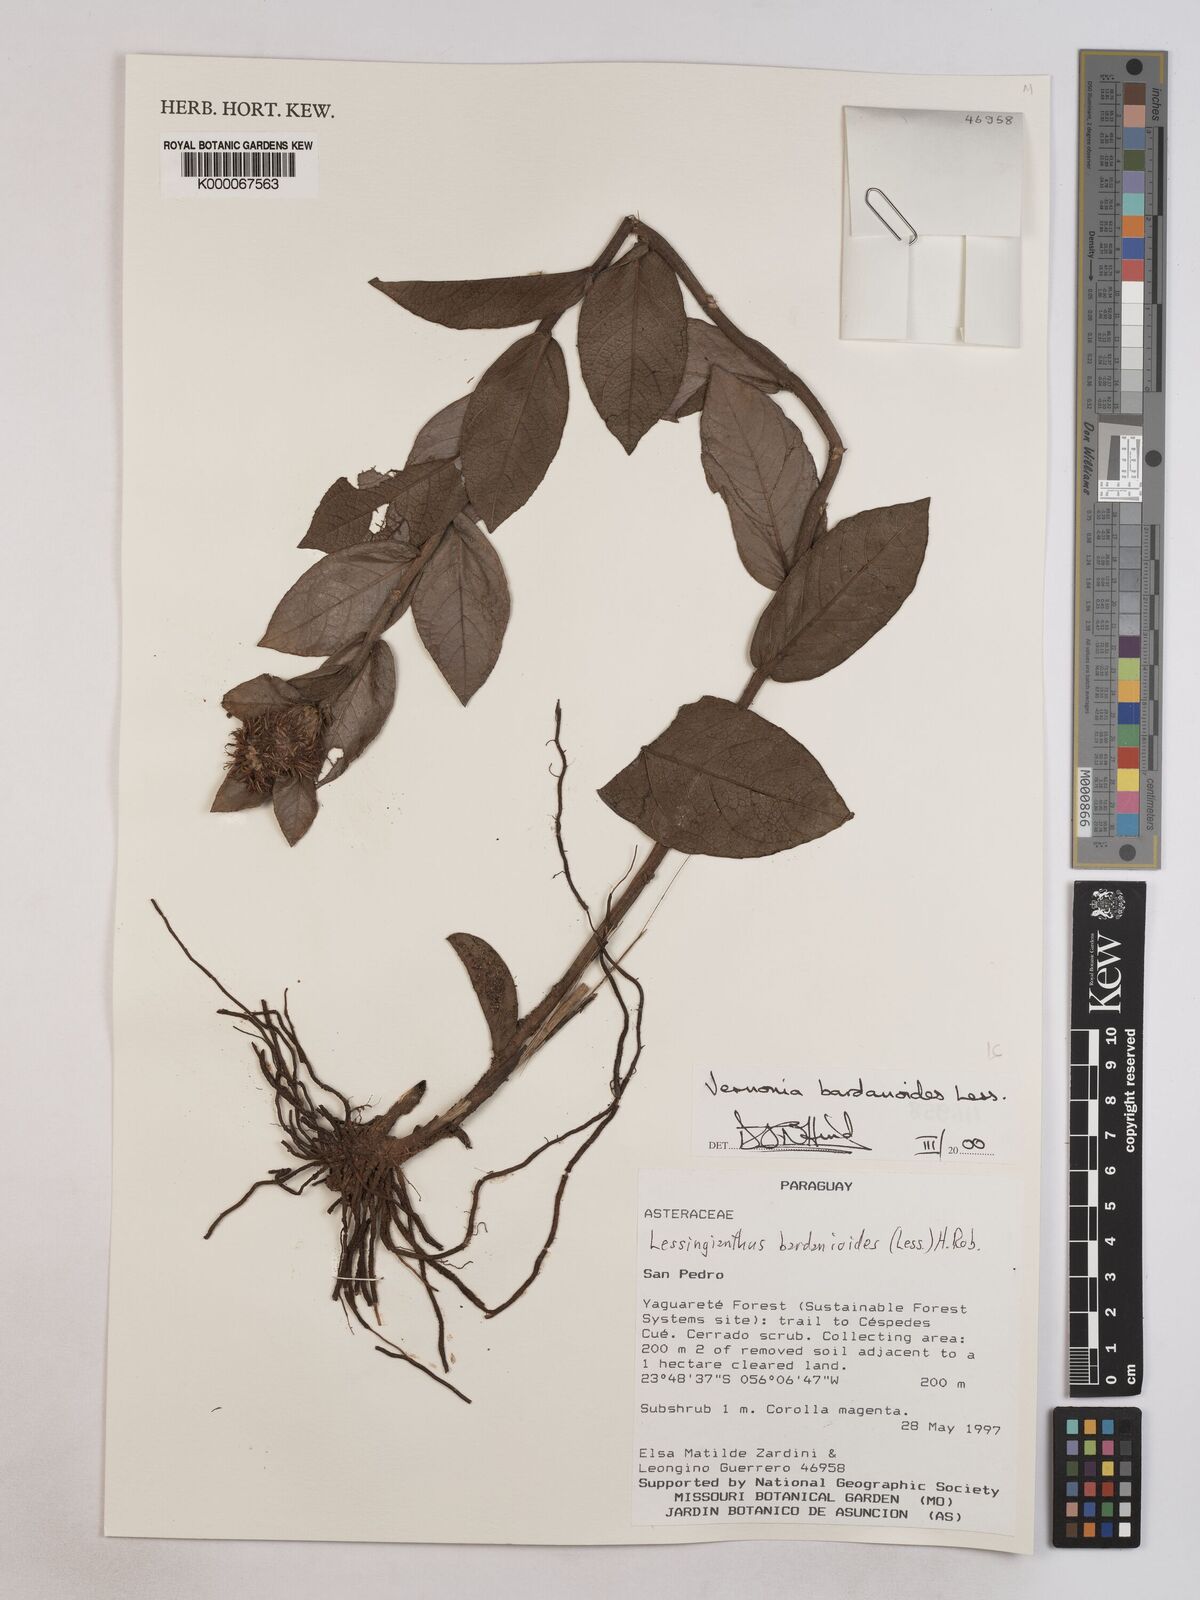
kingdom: Plantae
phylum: Tracheophyta
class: Magnoliopsida
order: Asterales
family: Asteraceae
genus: Lessingianthus
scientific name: Lessingianthus bardanioides
